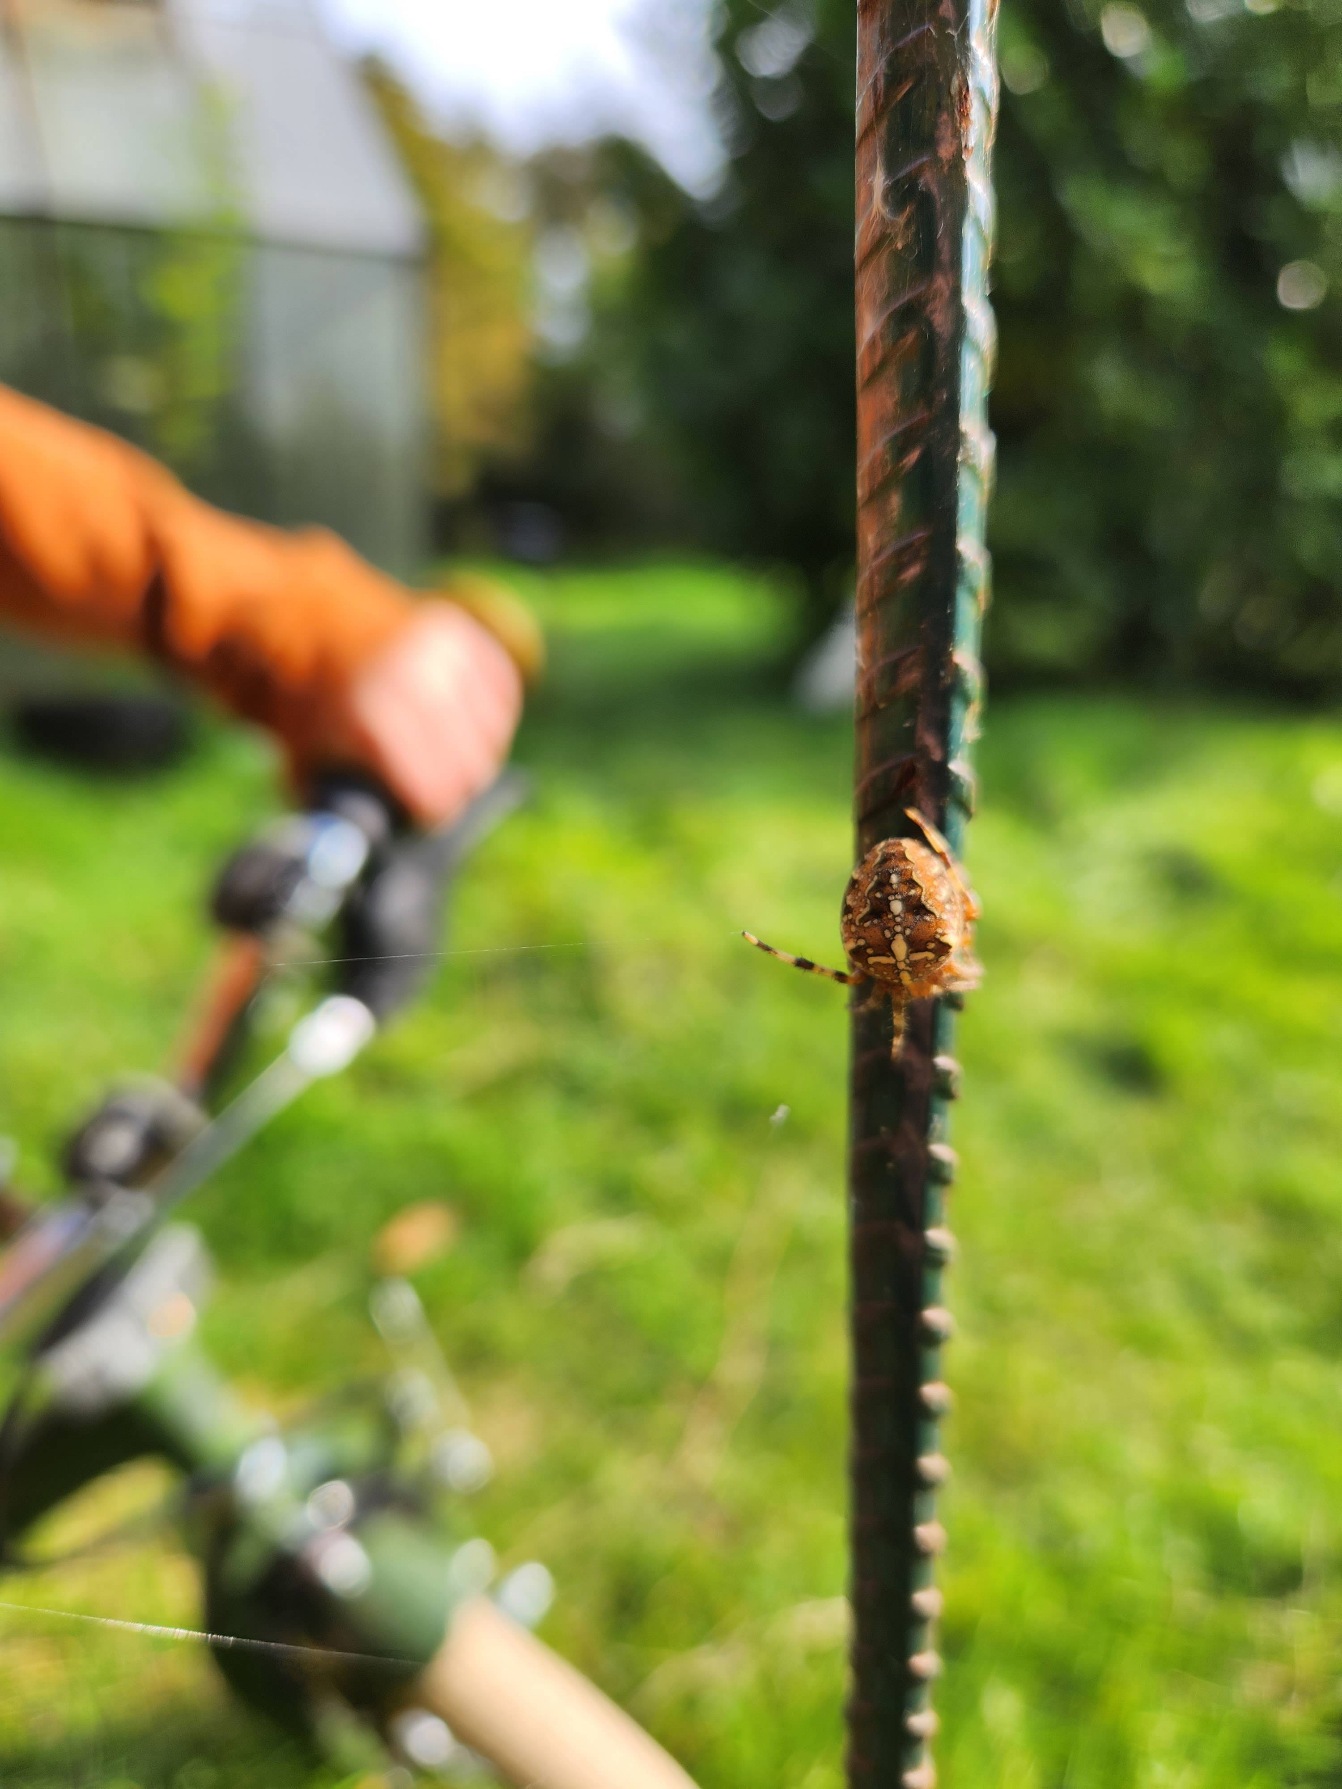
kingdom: Animalia
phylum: Arthropoda
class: Arachnida
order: Araneae
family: Araneidae
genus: Araneus
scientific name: Araneus diadematus
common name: Korsedderkop
